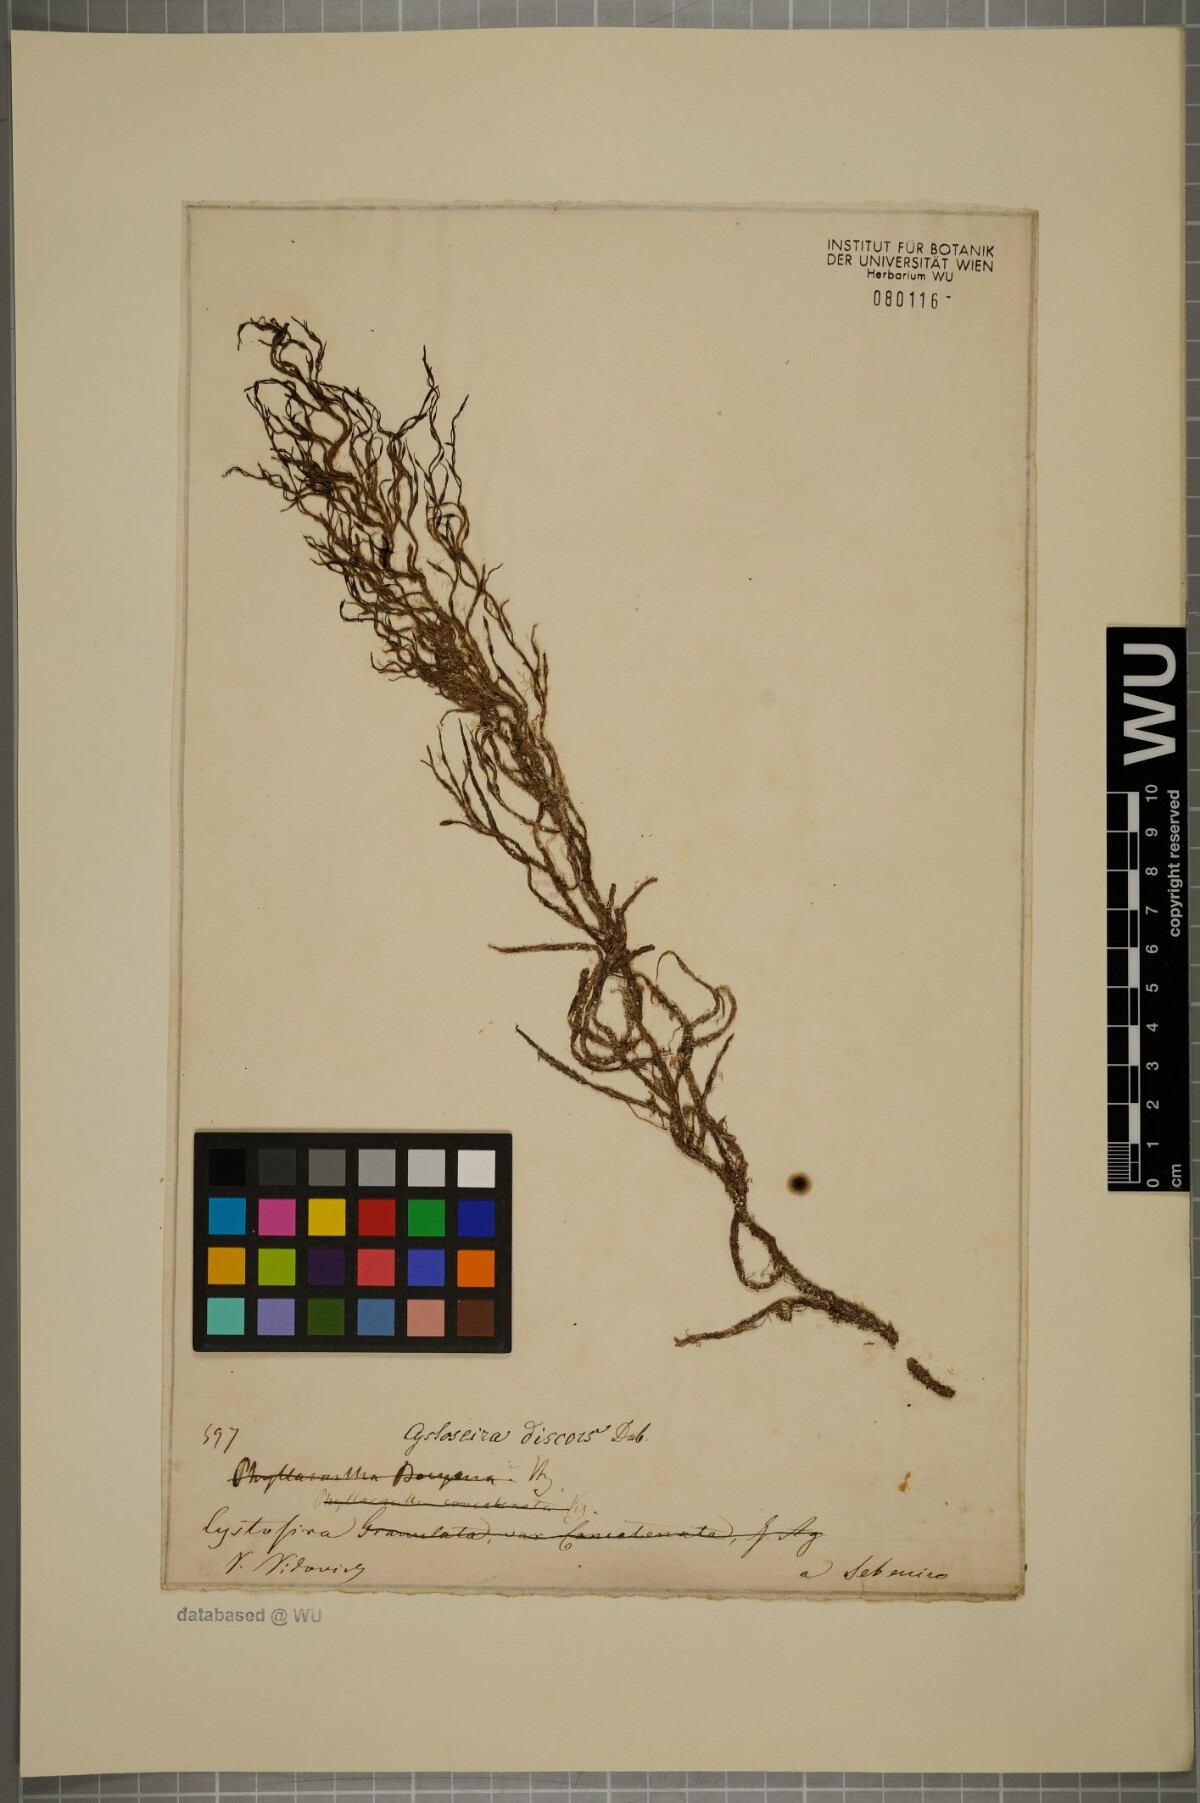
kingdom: Chromista
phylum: Ochrophyta
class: Phaeophyceae
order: Fucales
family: Sargassaceae
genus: Cystoseira
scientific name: Cystoseira foeniculacea
